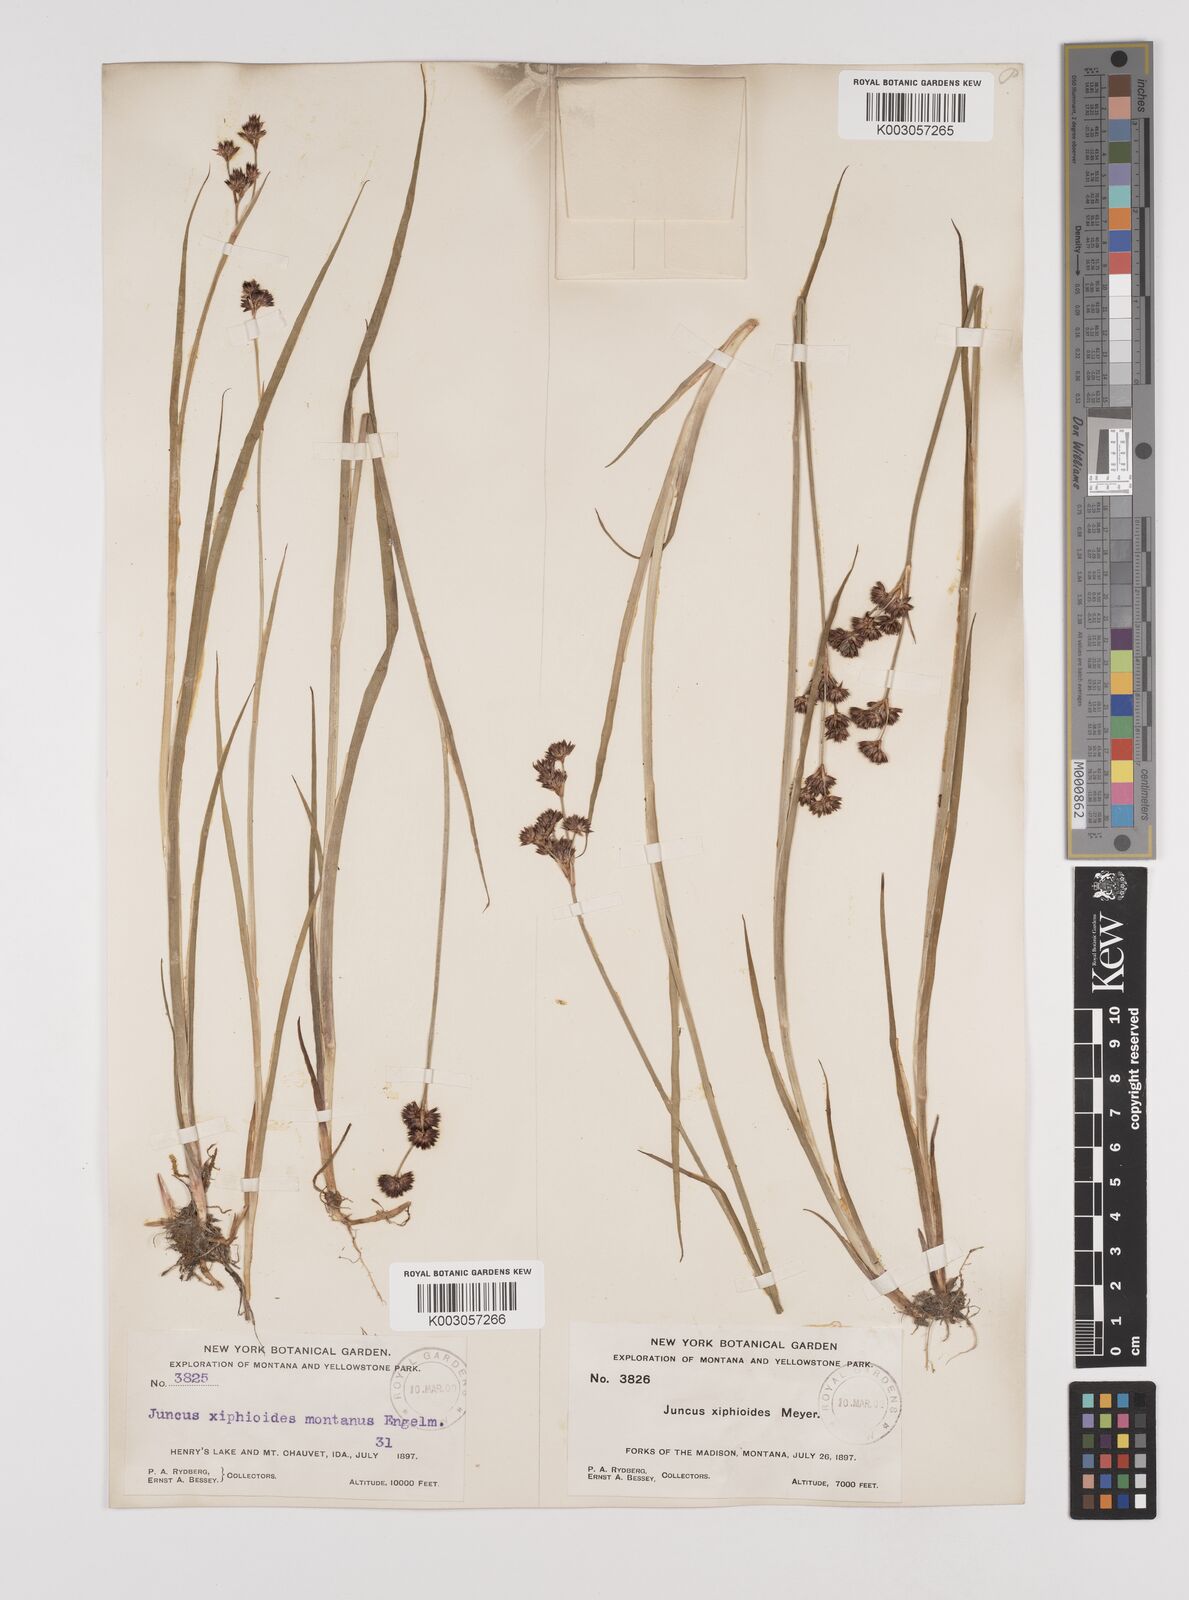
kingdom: Plantae
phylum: Tracheophyta
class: Liliopsida
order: Poales
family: Juncaceae
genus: Juncus
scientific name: Juncus xiphioides
